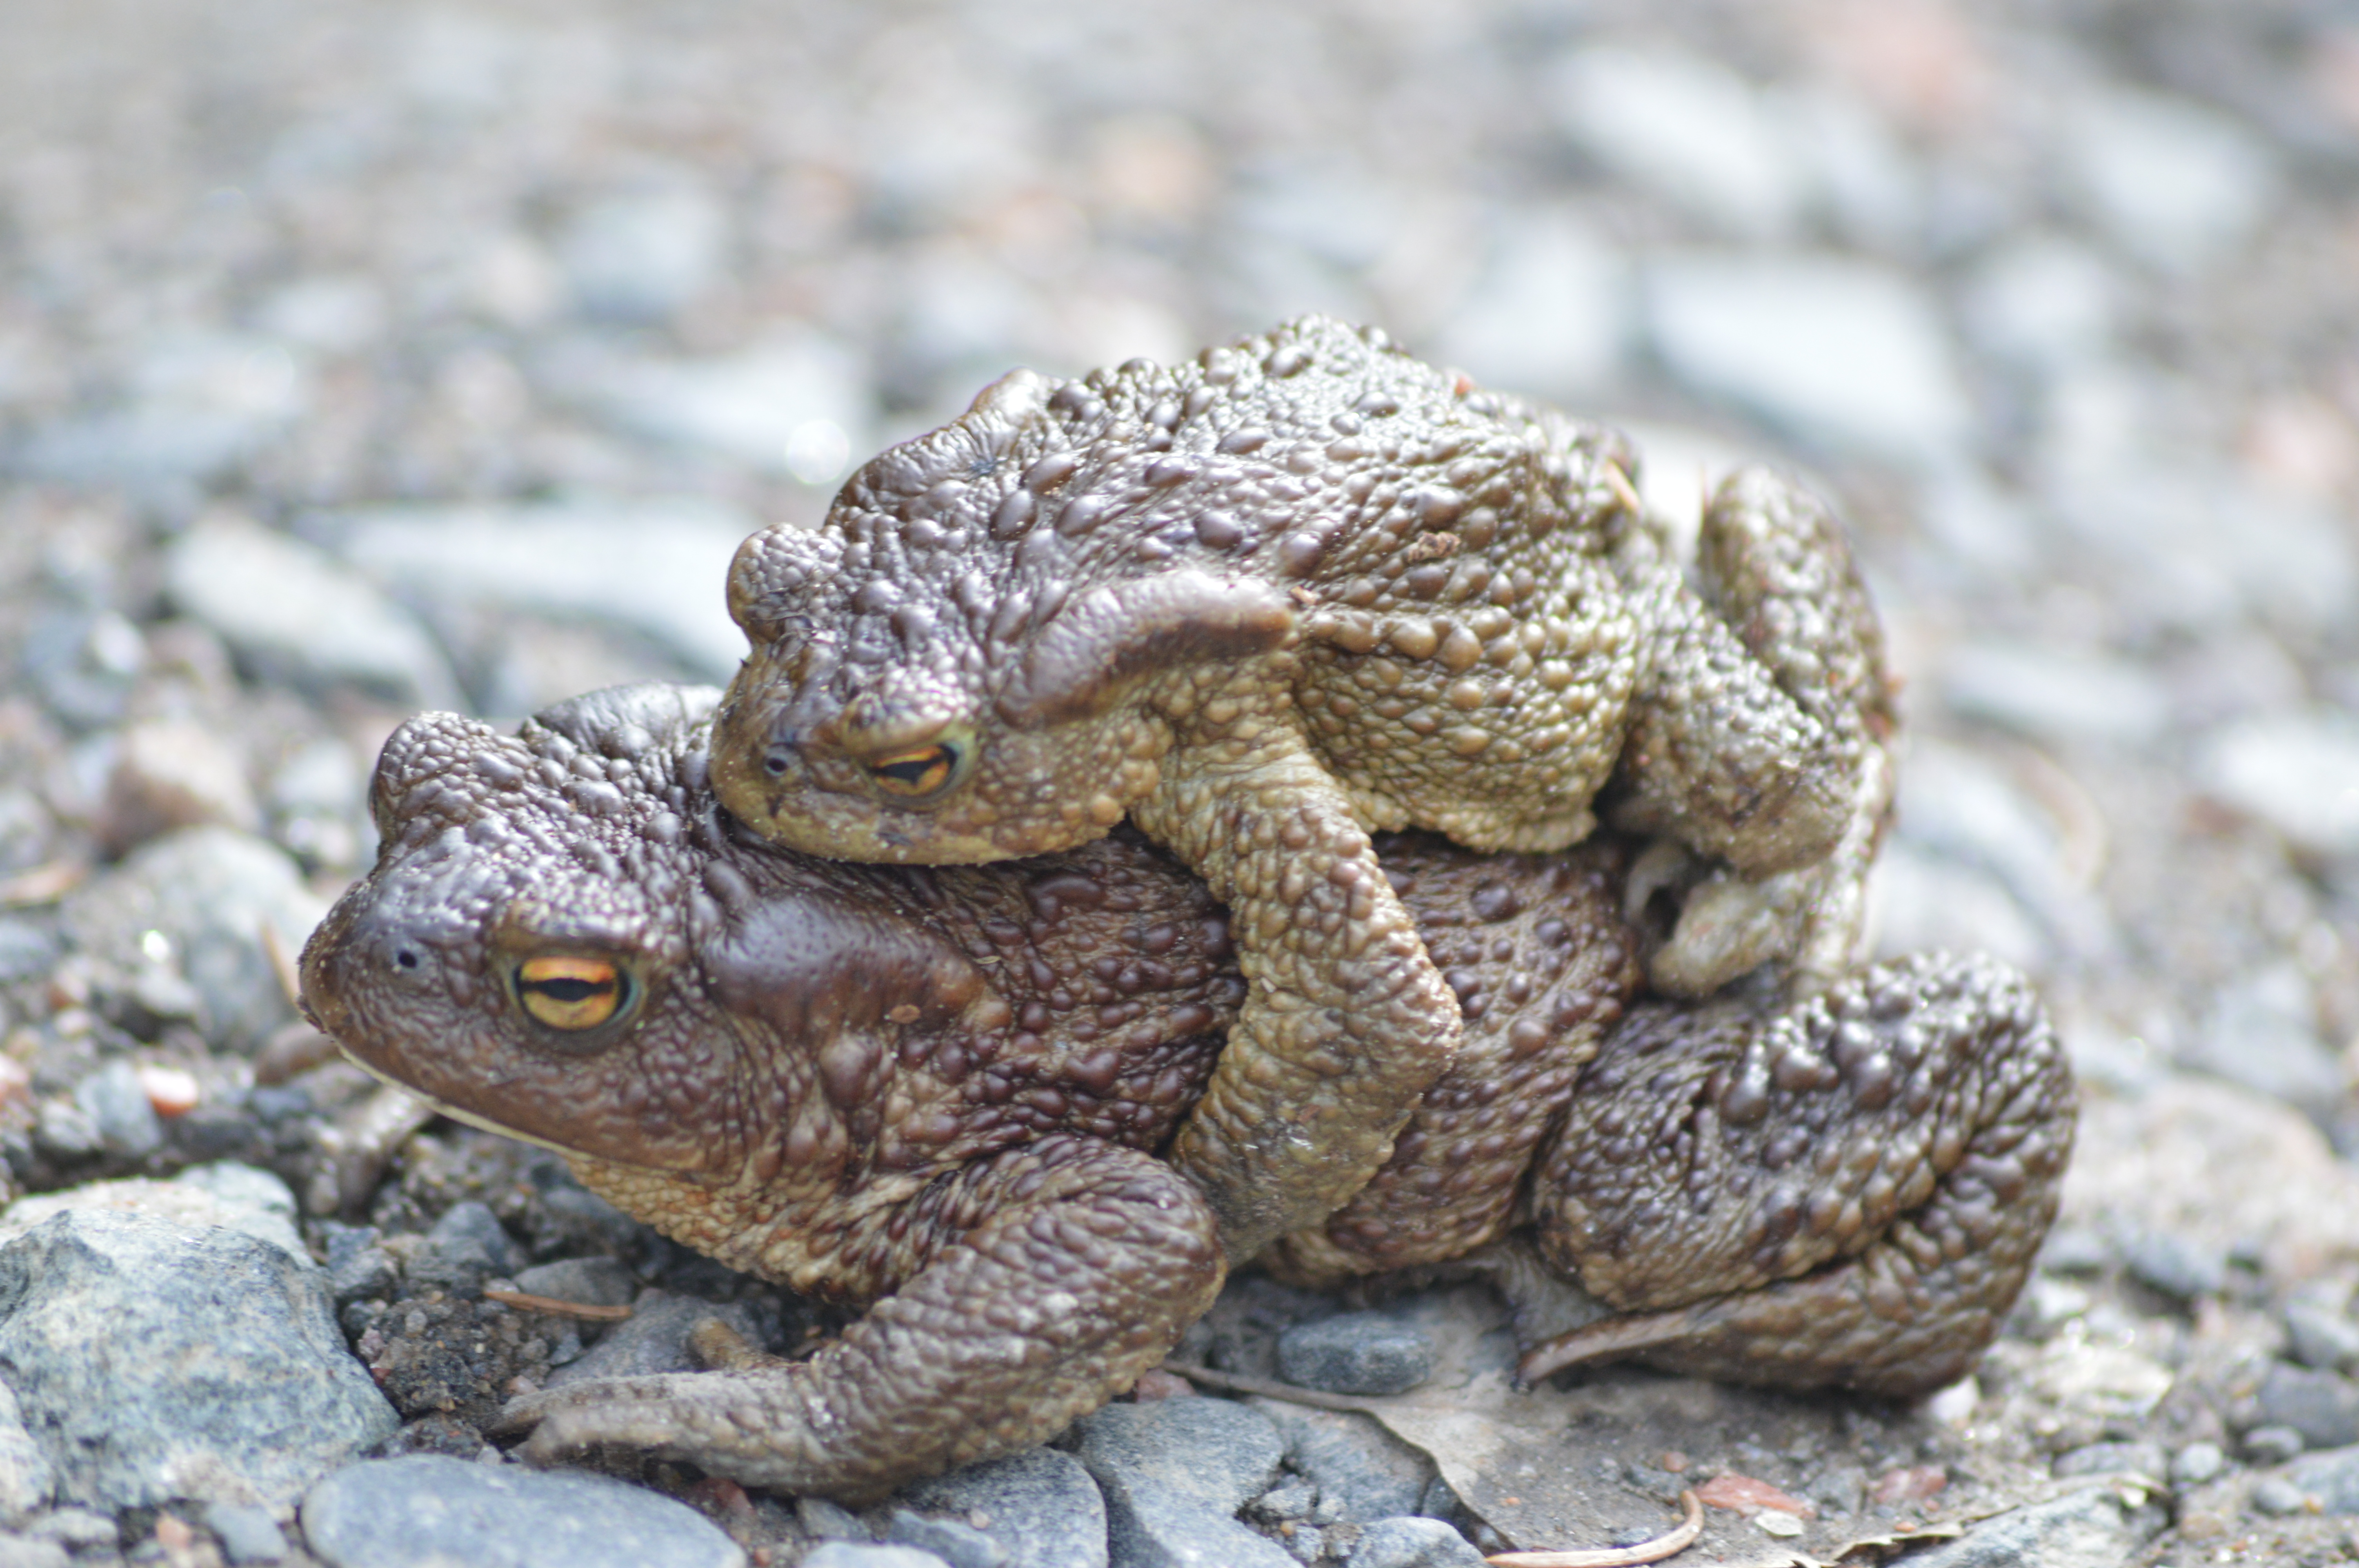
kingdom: Animalia
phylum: Chordata
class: Amphibia
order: Anura
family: Bufonidae
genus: Bufo
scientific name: Bufo bufo
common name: Common toad
